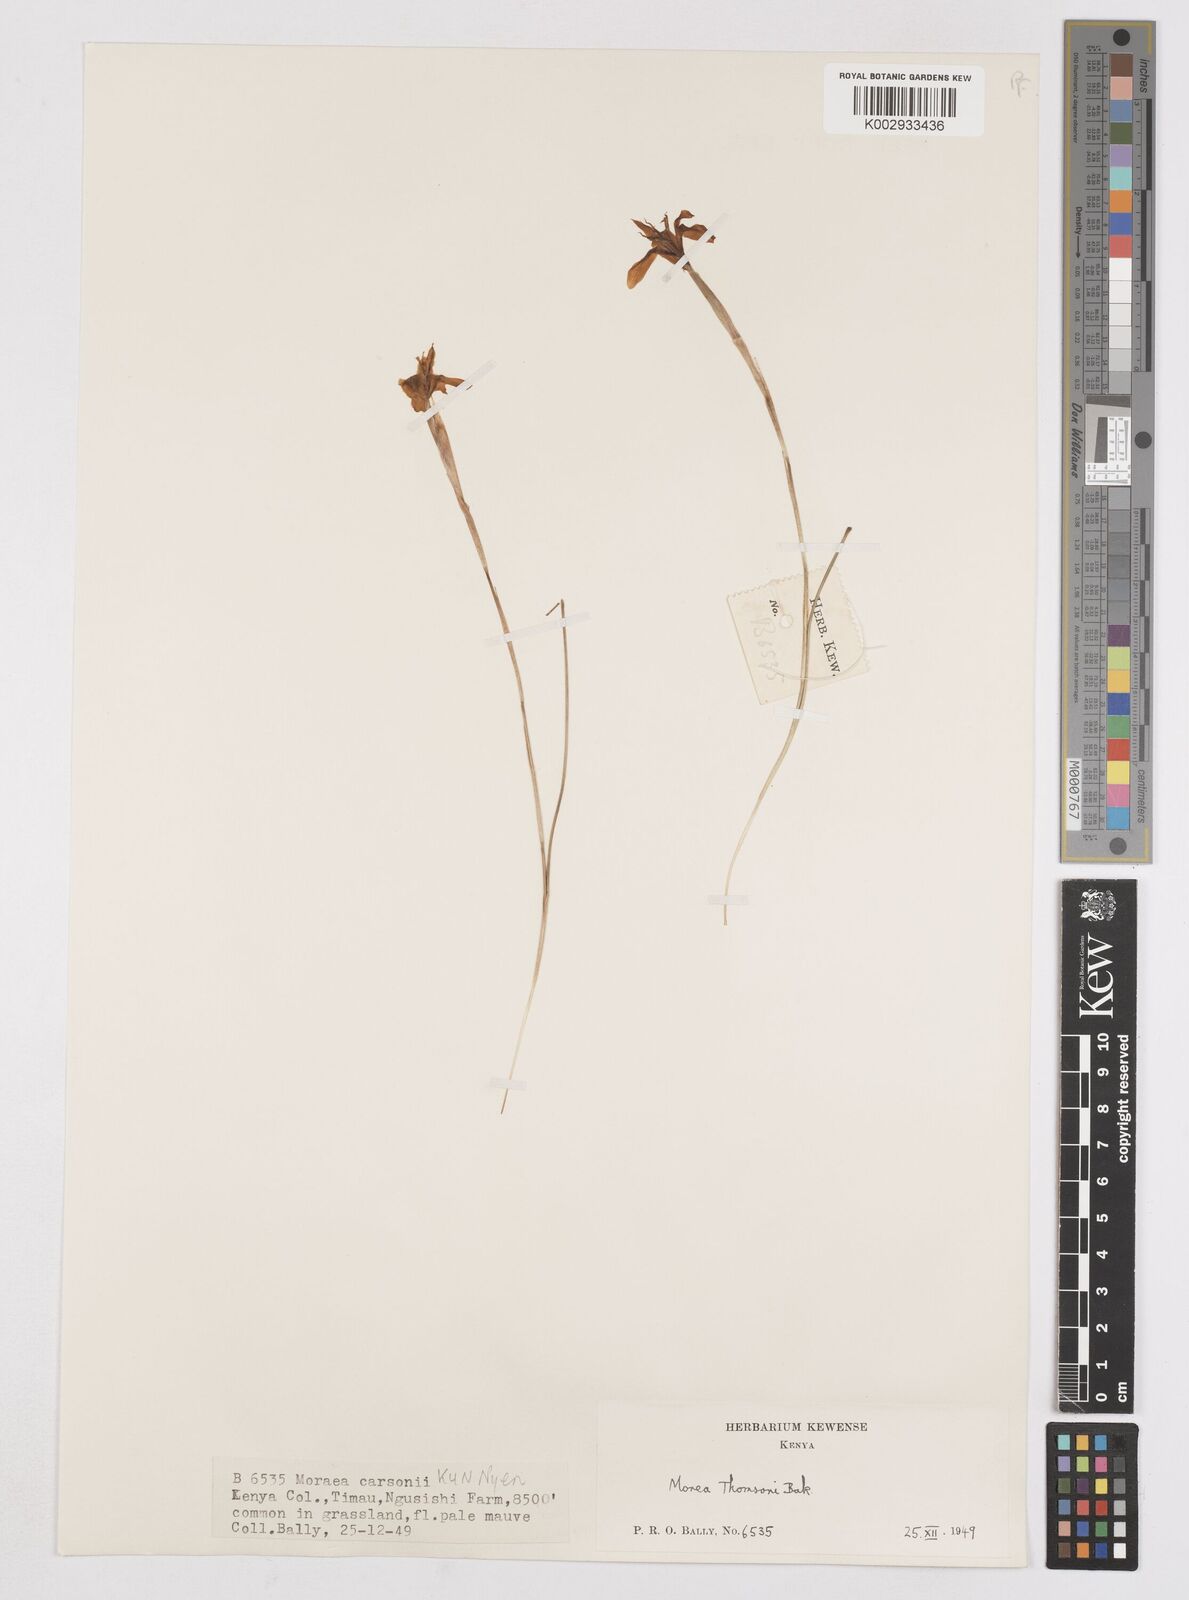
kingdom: Plantae
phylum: Tracheophyta
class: Liliopsida
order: Asparagales
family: Iridaceae
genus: Moraea
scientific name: Moraea stricta
